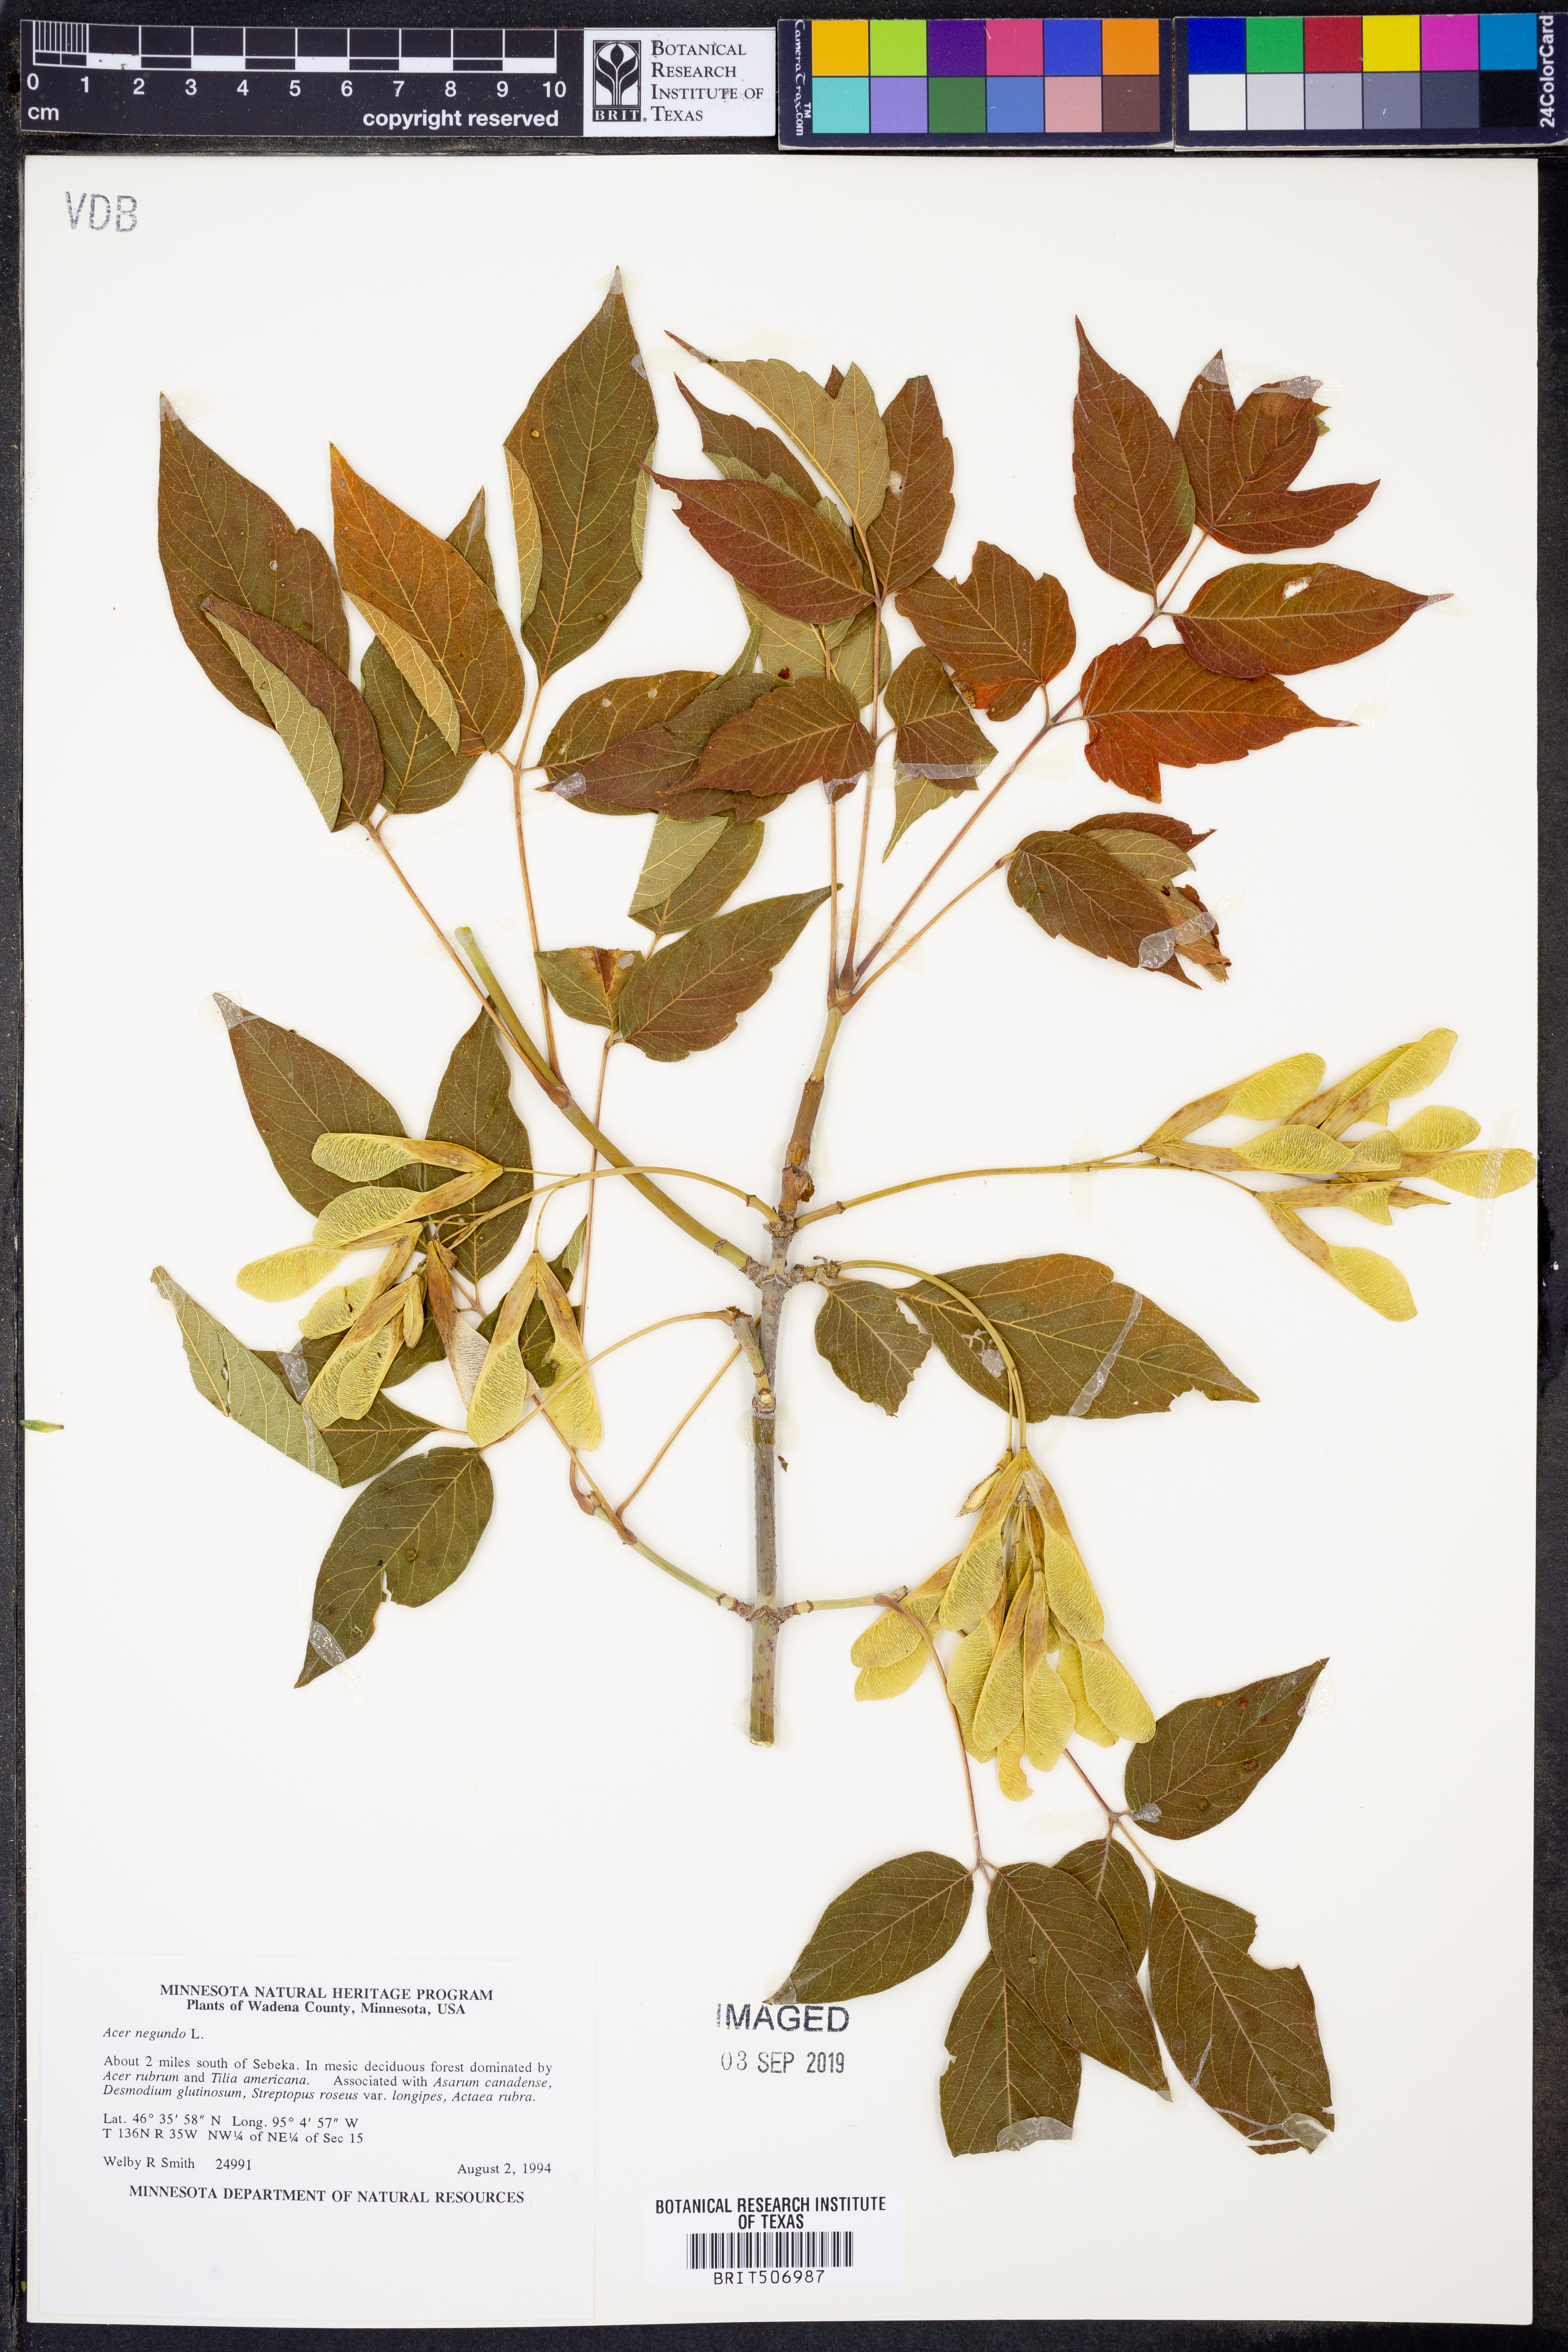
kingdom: Plantae
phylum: Tracheophyta
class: Magnoliopsida
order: Sapindales
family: Sapindaceae
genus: Acer
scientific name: Acer negundo
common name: Ashleaf maple
